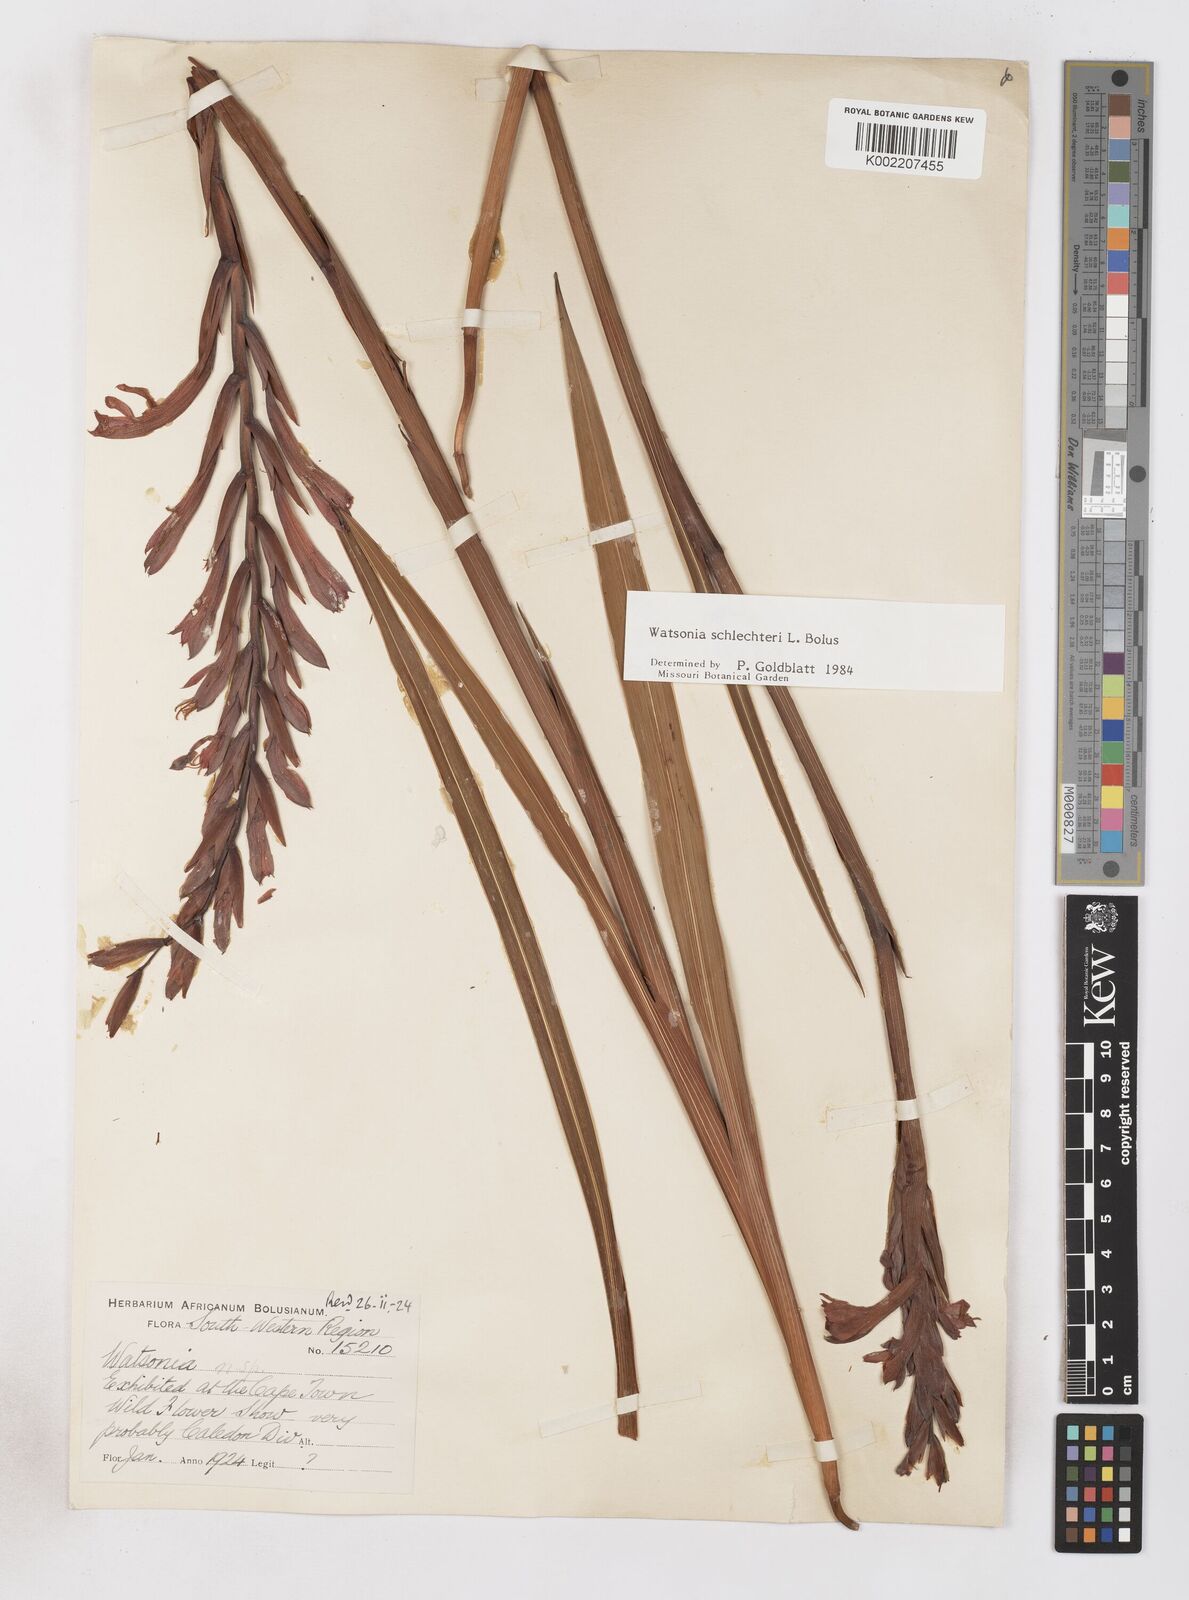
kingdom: Plantae
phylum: Tracheophyta
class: Liliopsida
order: Asparagales
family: Iridaceae
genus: Watsonia
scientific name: Watsonia schlechteri
